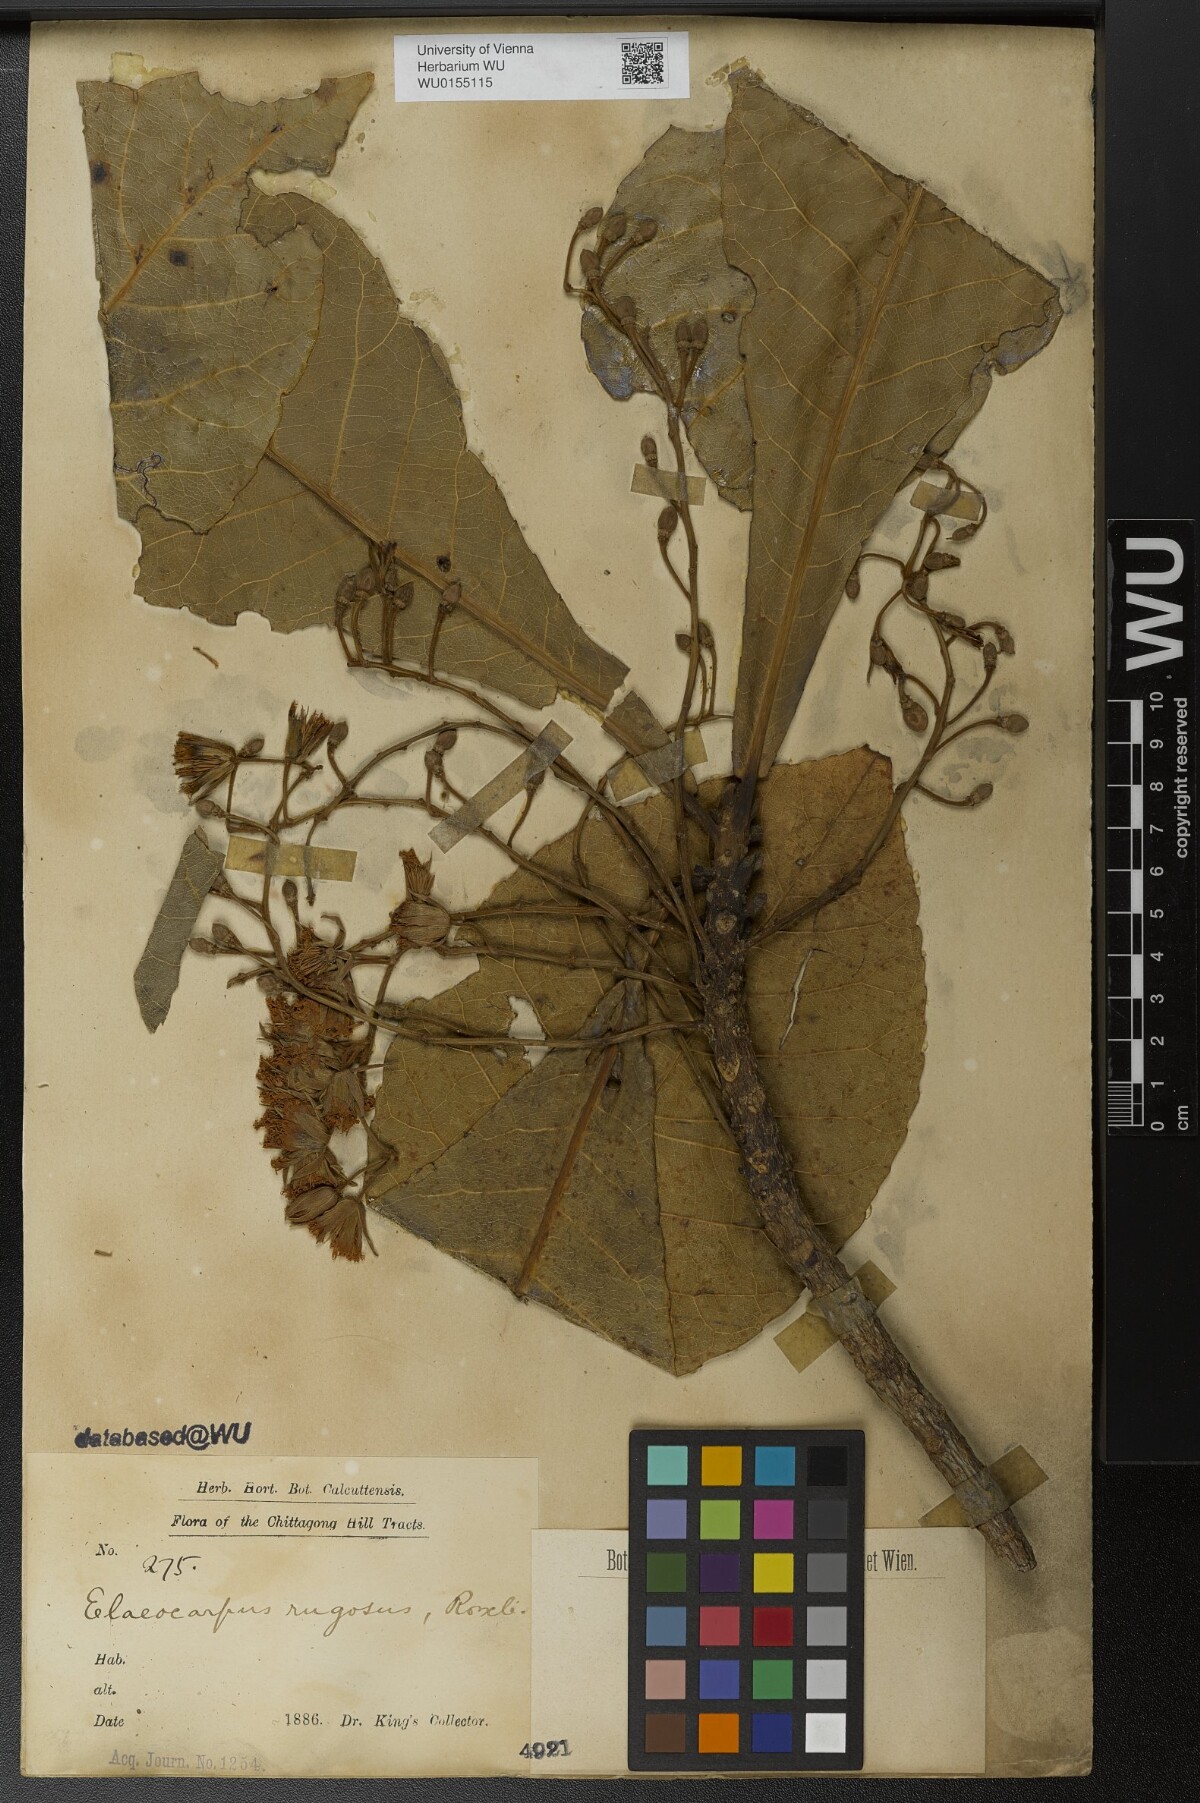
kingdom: Plantae
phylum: Tracheophyta
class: Magnoliopsida
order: Oxalidales
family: Elaeocarpaceae
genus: Elaeocarpus
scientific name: Elaeocarpus rugosus
